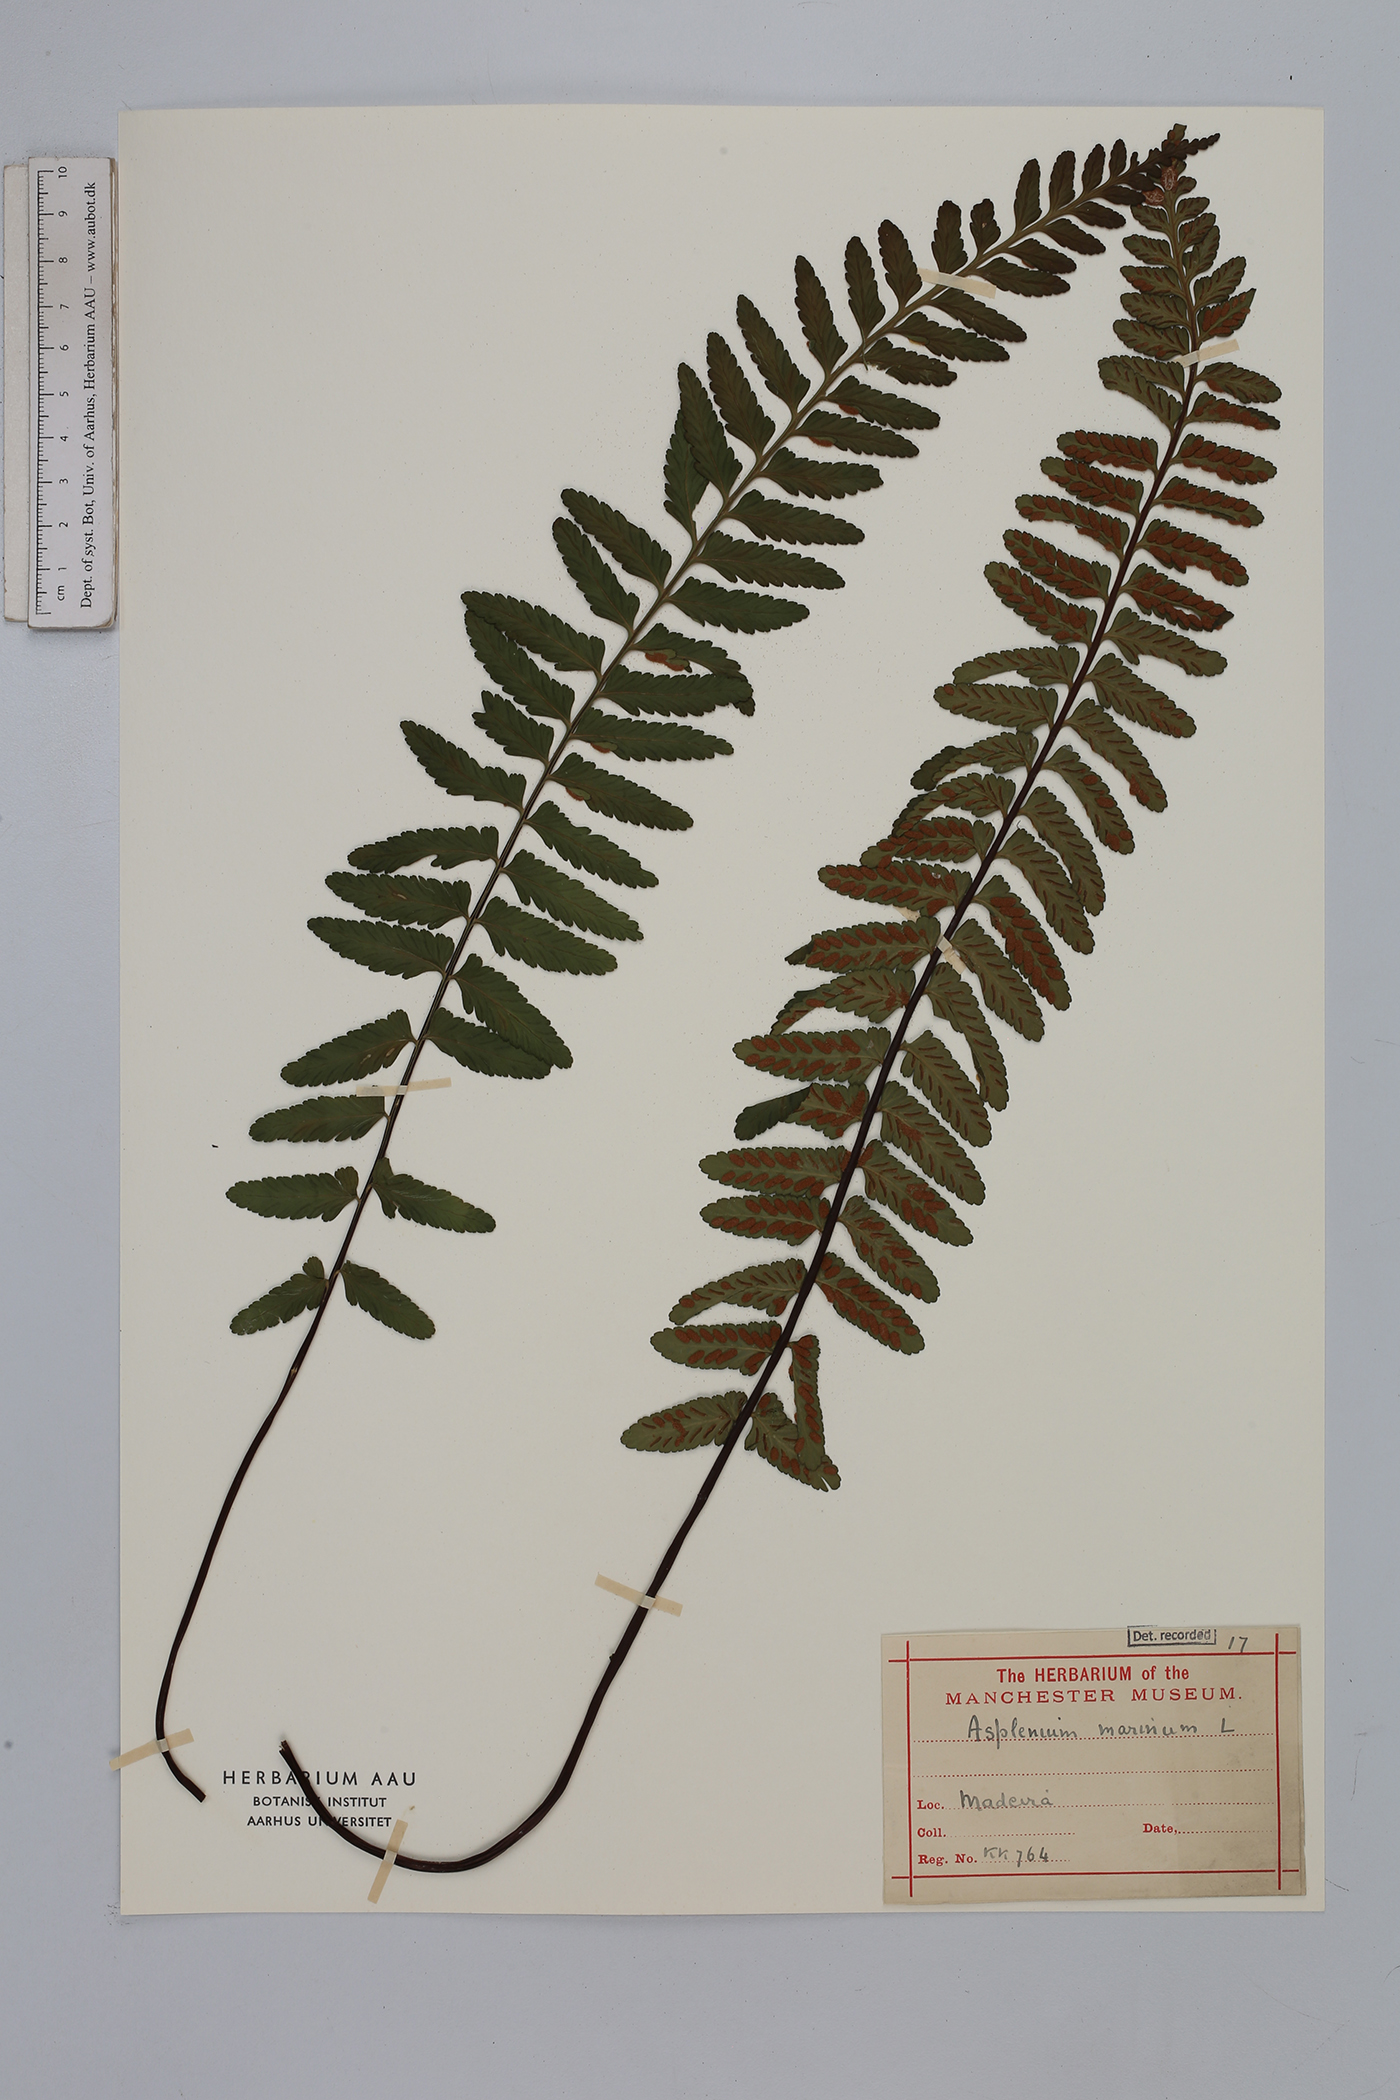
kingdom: Plantae
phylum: Tracheophyta
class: Polypodiopsida
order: Polypodiales
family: Aspleniaceae
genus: Asplenium
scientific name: Asplenium marinum
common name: Sea spleenwort
